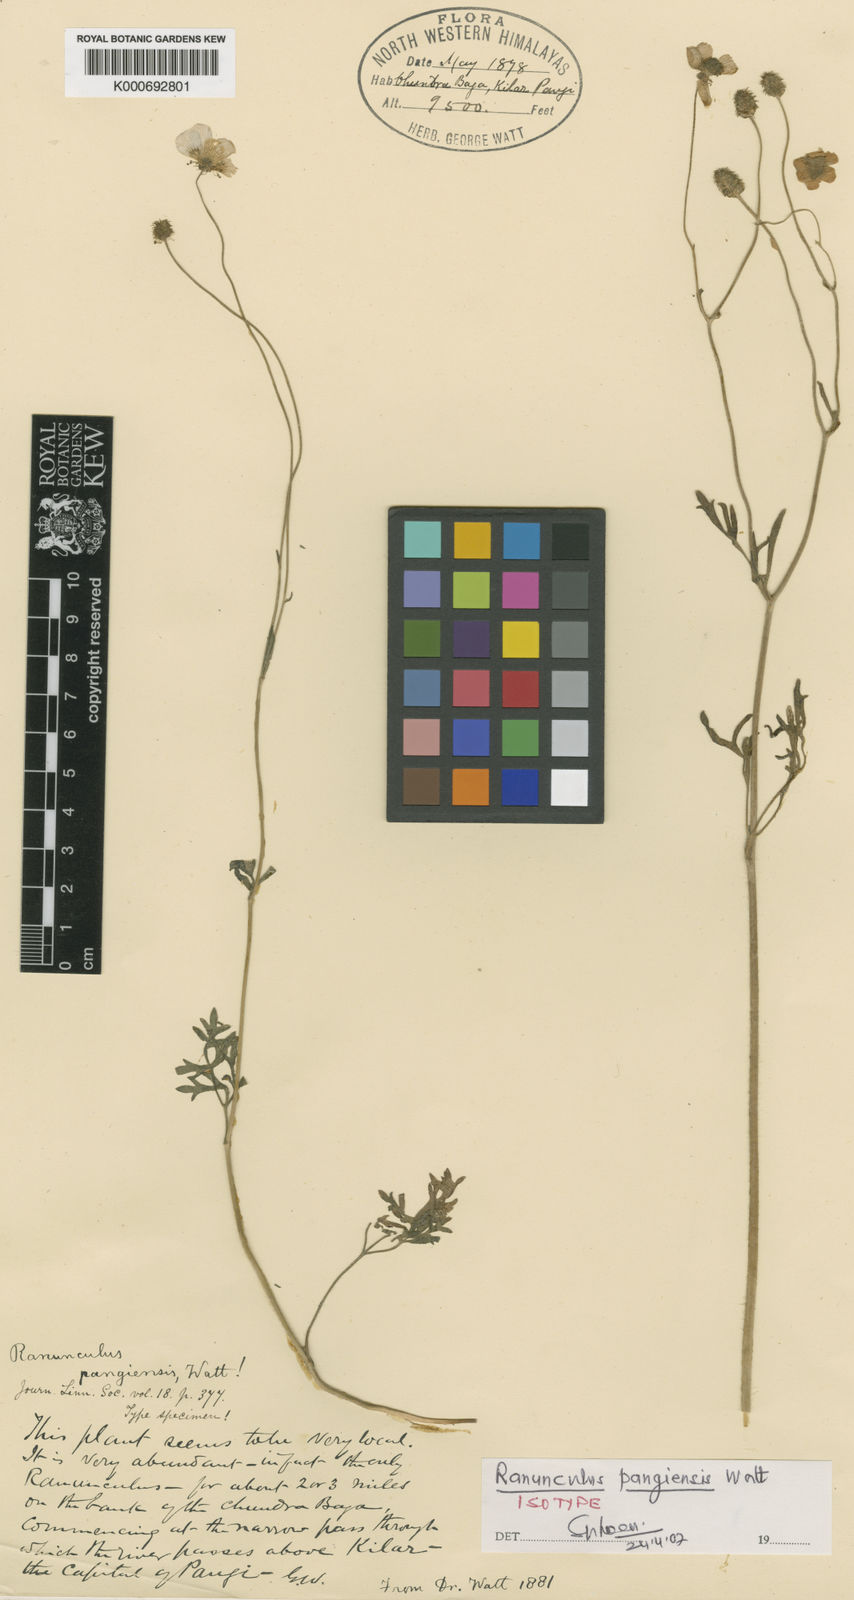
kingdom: Plantae
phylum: Tracheophyta
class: Magnoliopsida
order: Ranunculales
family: Ranunculaceae
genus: Ranunculus
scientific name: Ranunculus pangiensis
